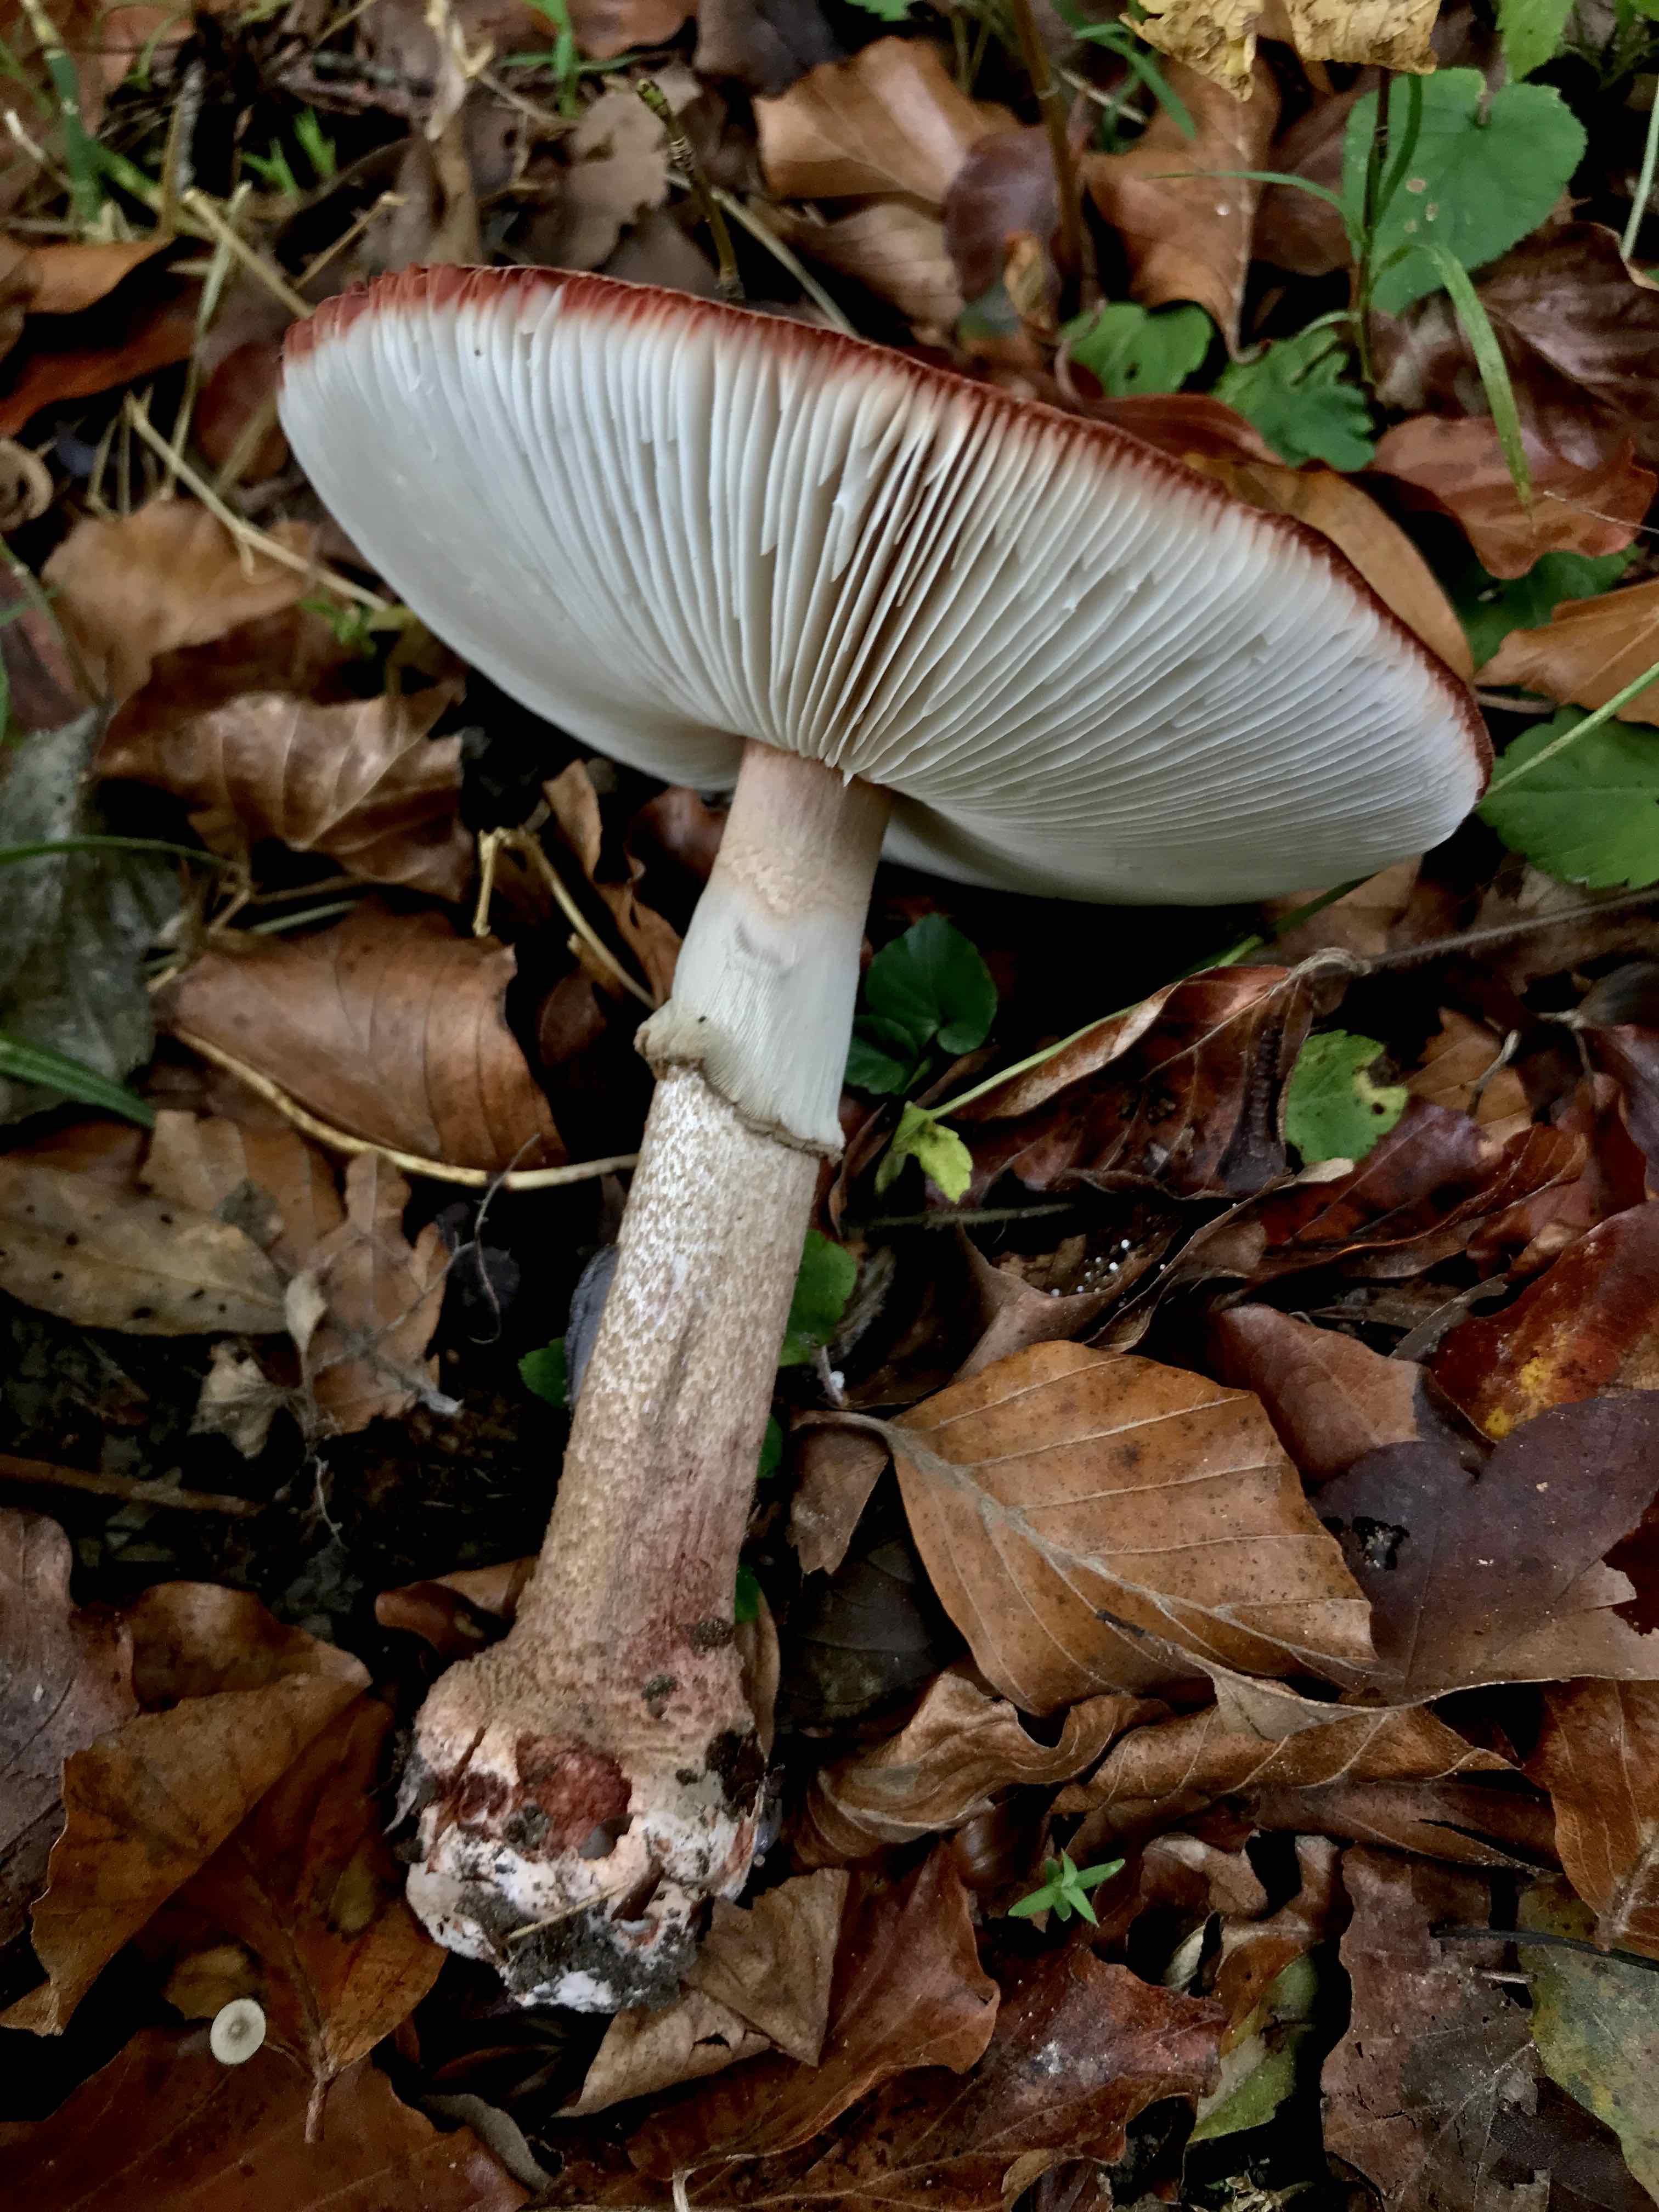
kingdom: Fungi
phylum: Basidiomycota
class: Agaricomycetes
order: Agaricales
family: Amanitaceae
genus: Amanita
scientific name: Amanita rubescens
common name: rødmende fluesvamp
